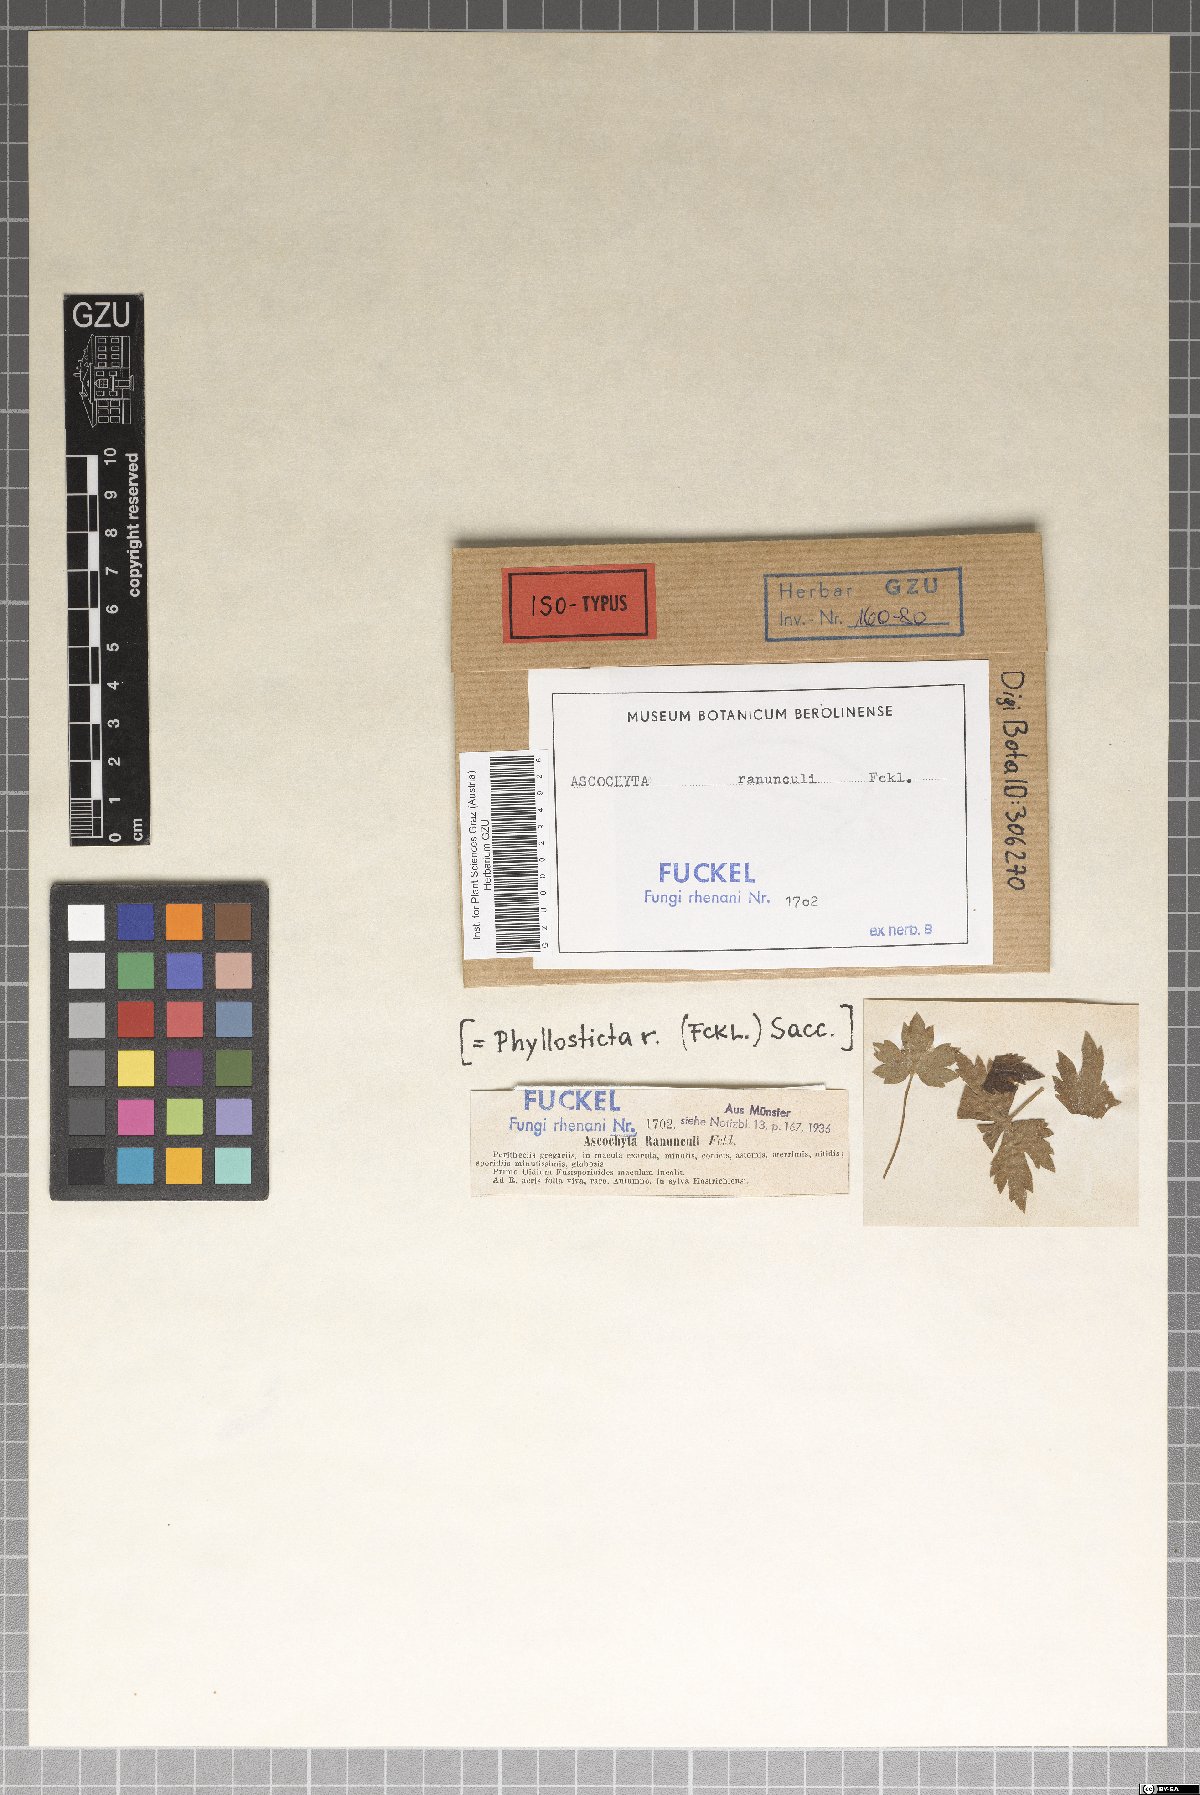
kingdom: Fungi
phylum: Ascomycota
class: Dothideomycetes
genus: Asteromella
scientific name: Asteromella ranunculi
